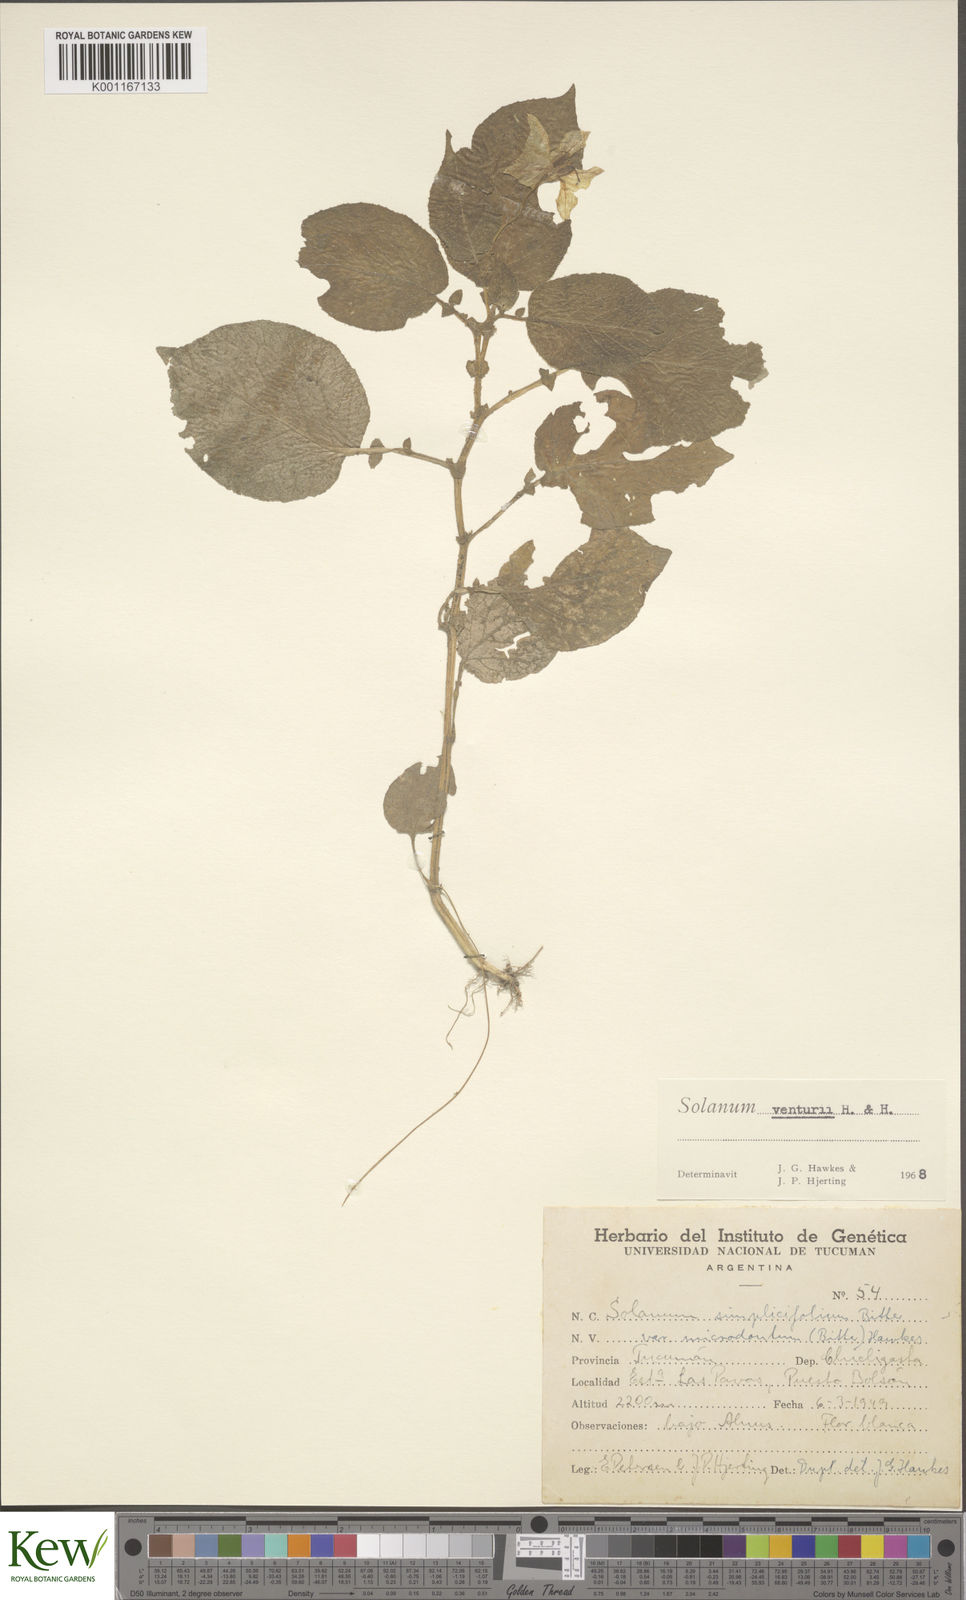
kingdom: Plantae
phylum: Tracheophyta
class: Magnoliopsida
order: Solanales
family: Solanaceae
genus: Solanum
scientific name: Solanum venturii
